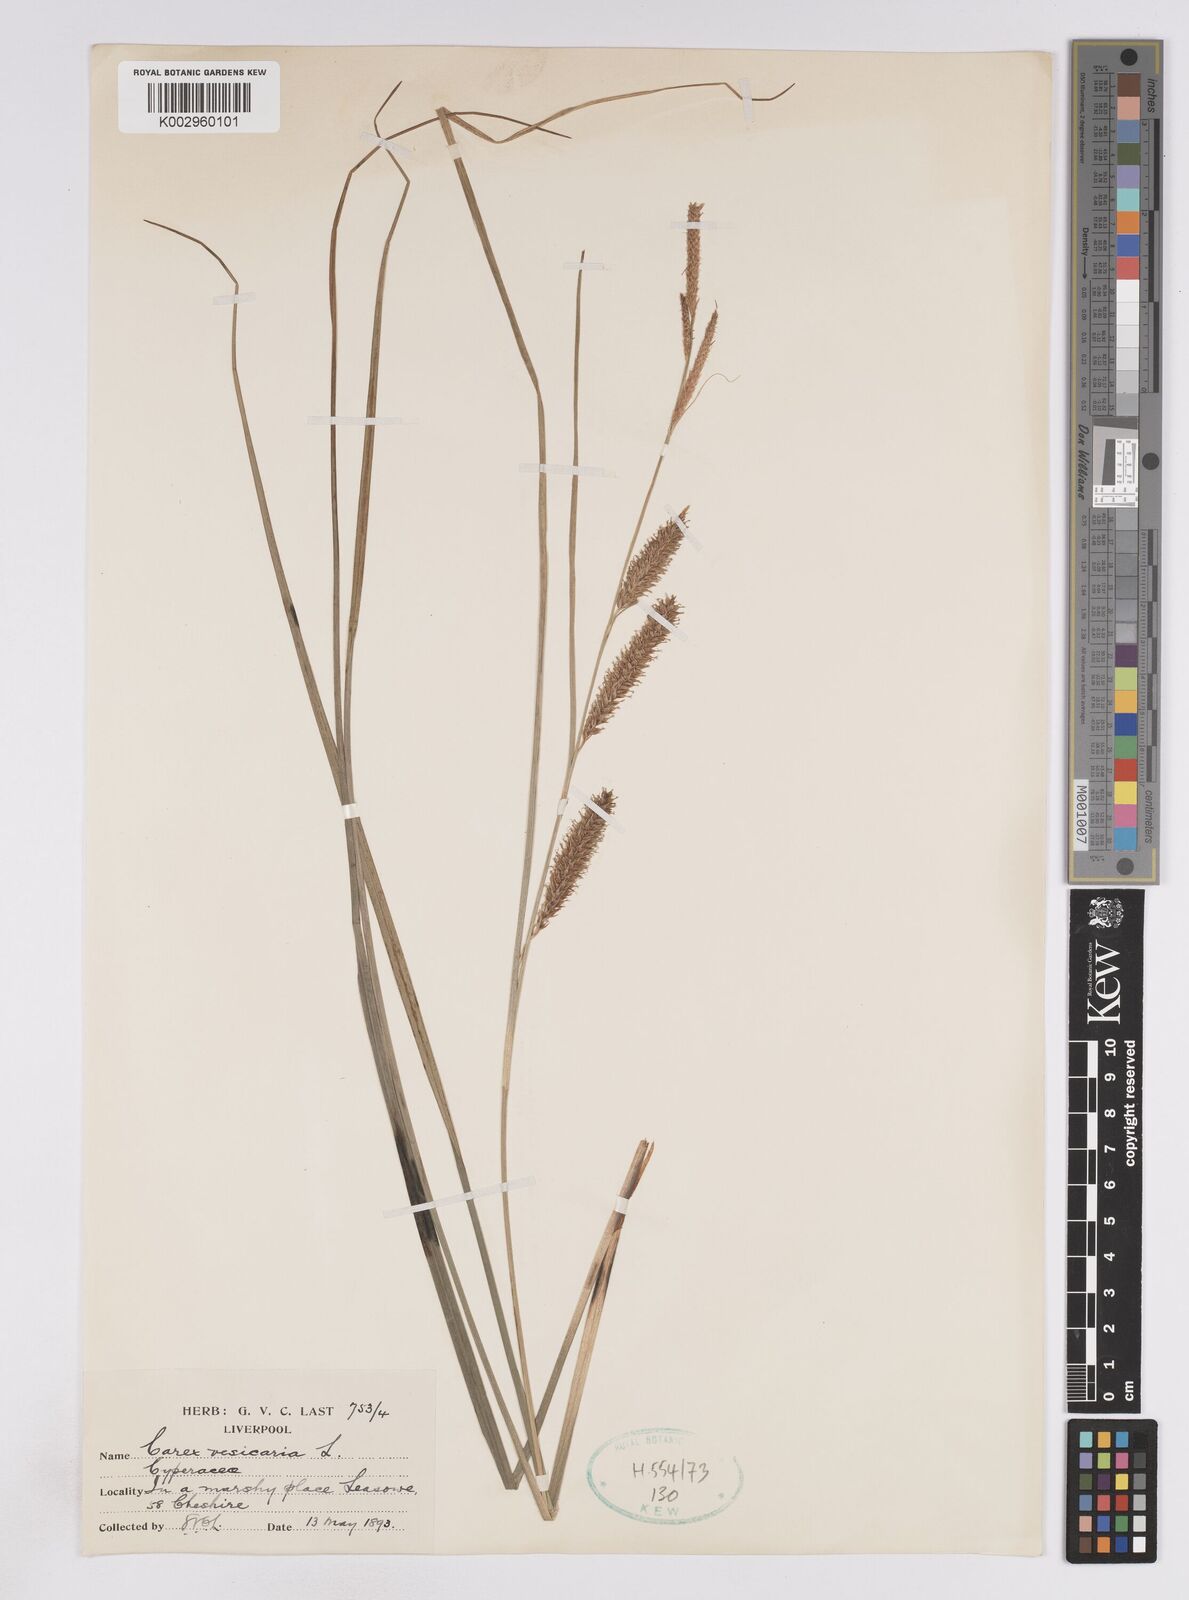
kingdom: Plantae
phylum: Tracheophyta
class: Liliopsida
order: Poales
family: Cyperaceae
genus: Carex
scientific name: Carex vesicaria
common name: Bladder-sedge
